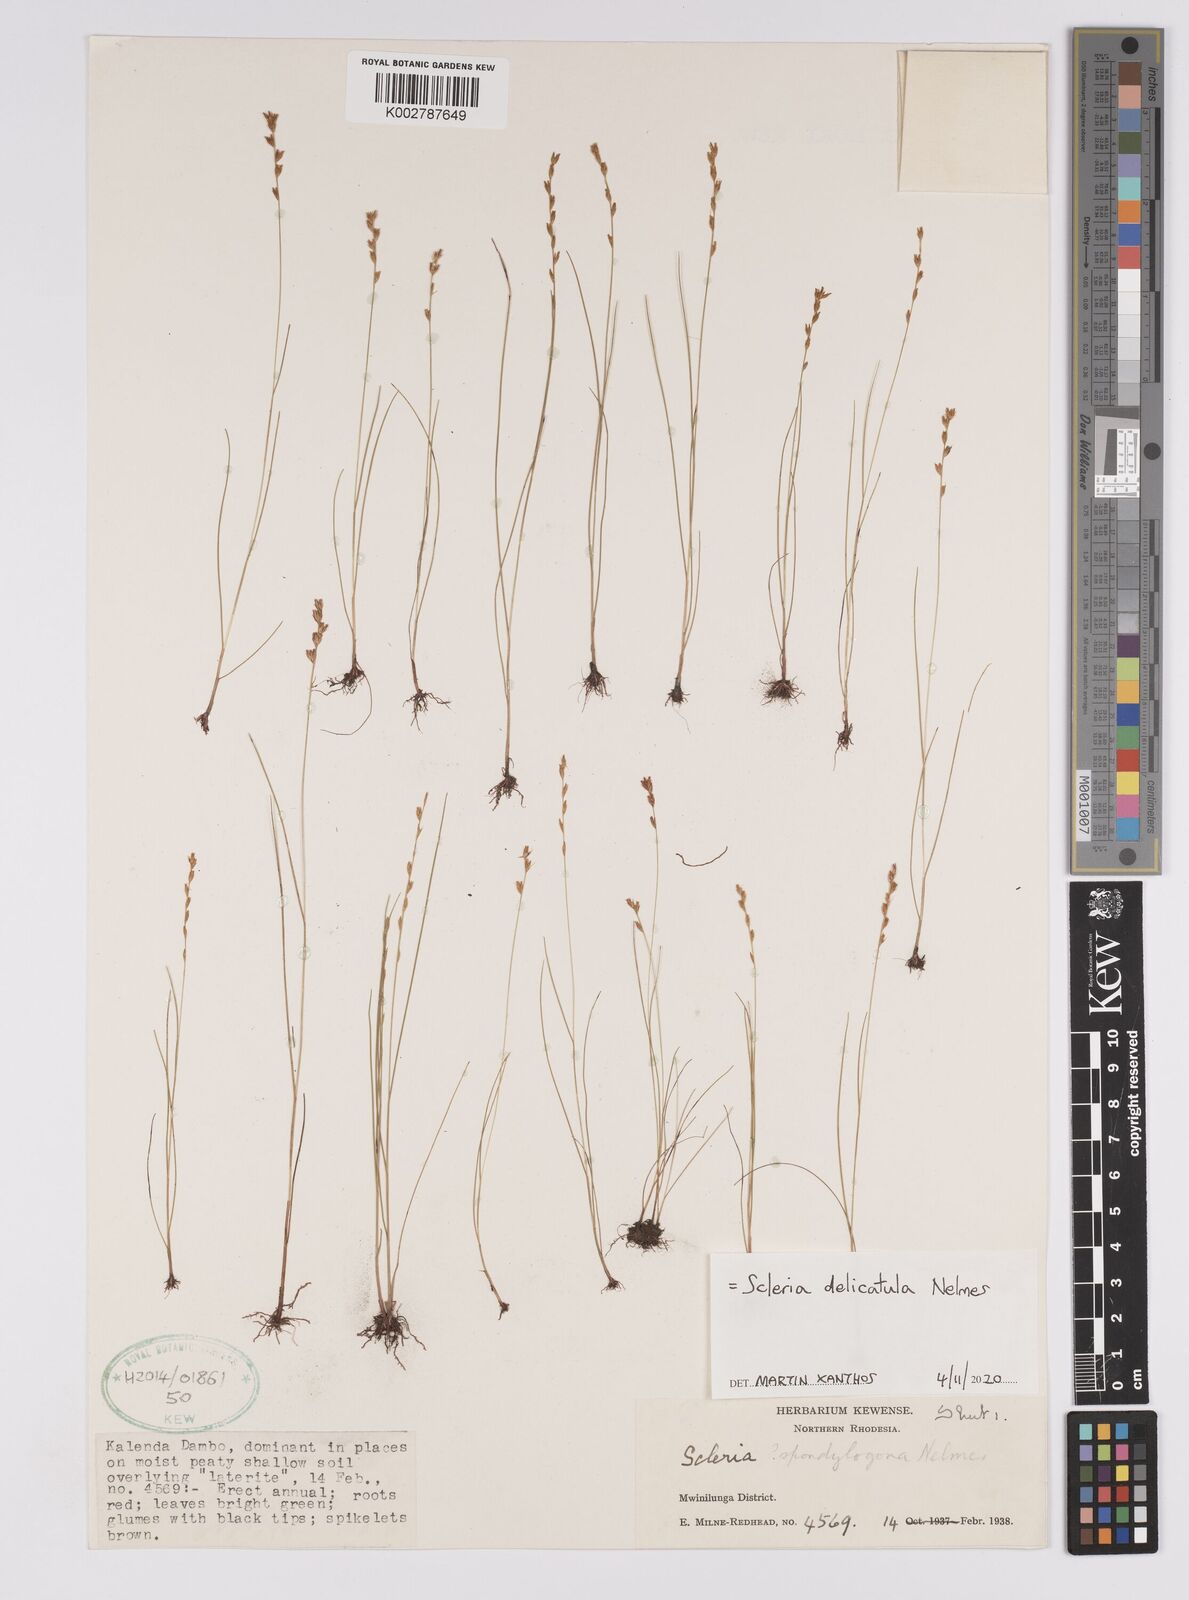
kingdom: Plantae
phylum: Tracheophyta
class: Liliopsida
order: Poales
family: Cyperaceae
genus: Scleria
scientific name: Scleria delicatula
